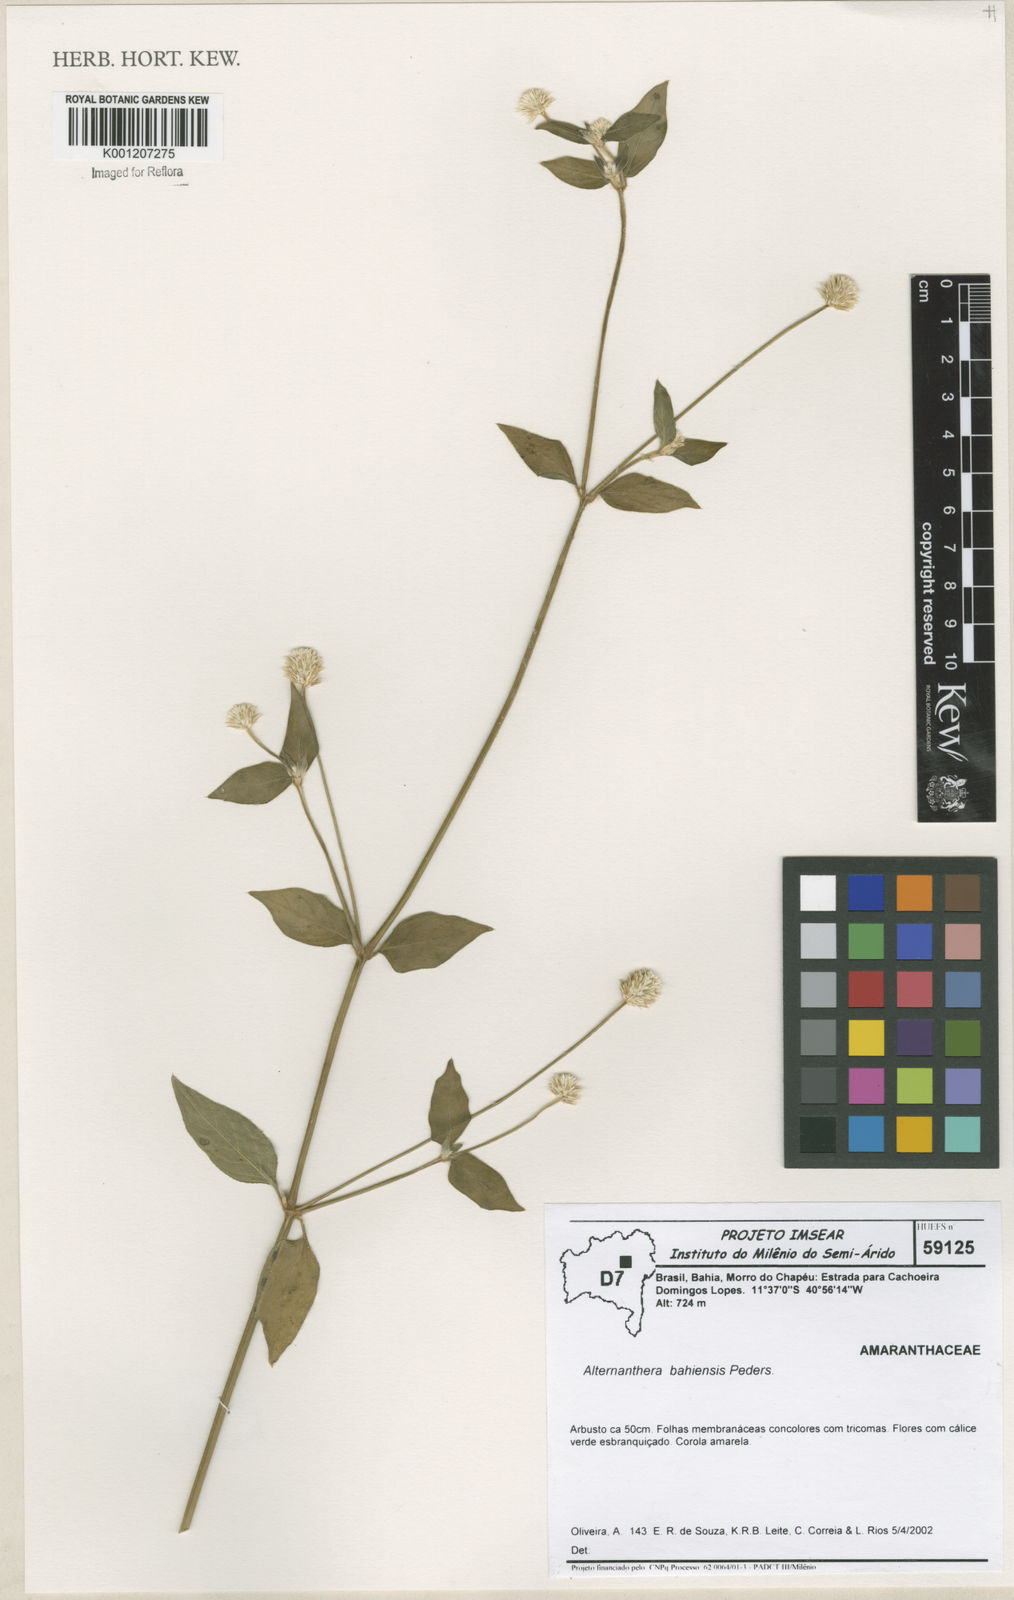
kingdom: Plantae
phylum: Tracheophyta
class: Magnoliopsida
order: Caryophyllales
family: Amaranthaceae
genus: Alternanthera
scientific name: Alternanthera bahiensis
